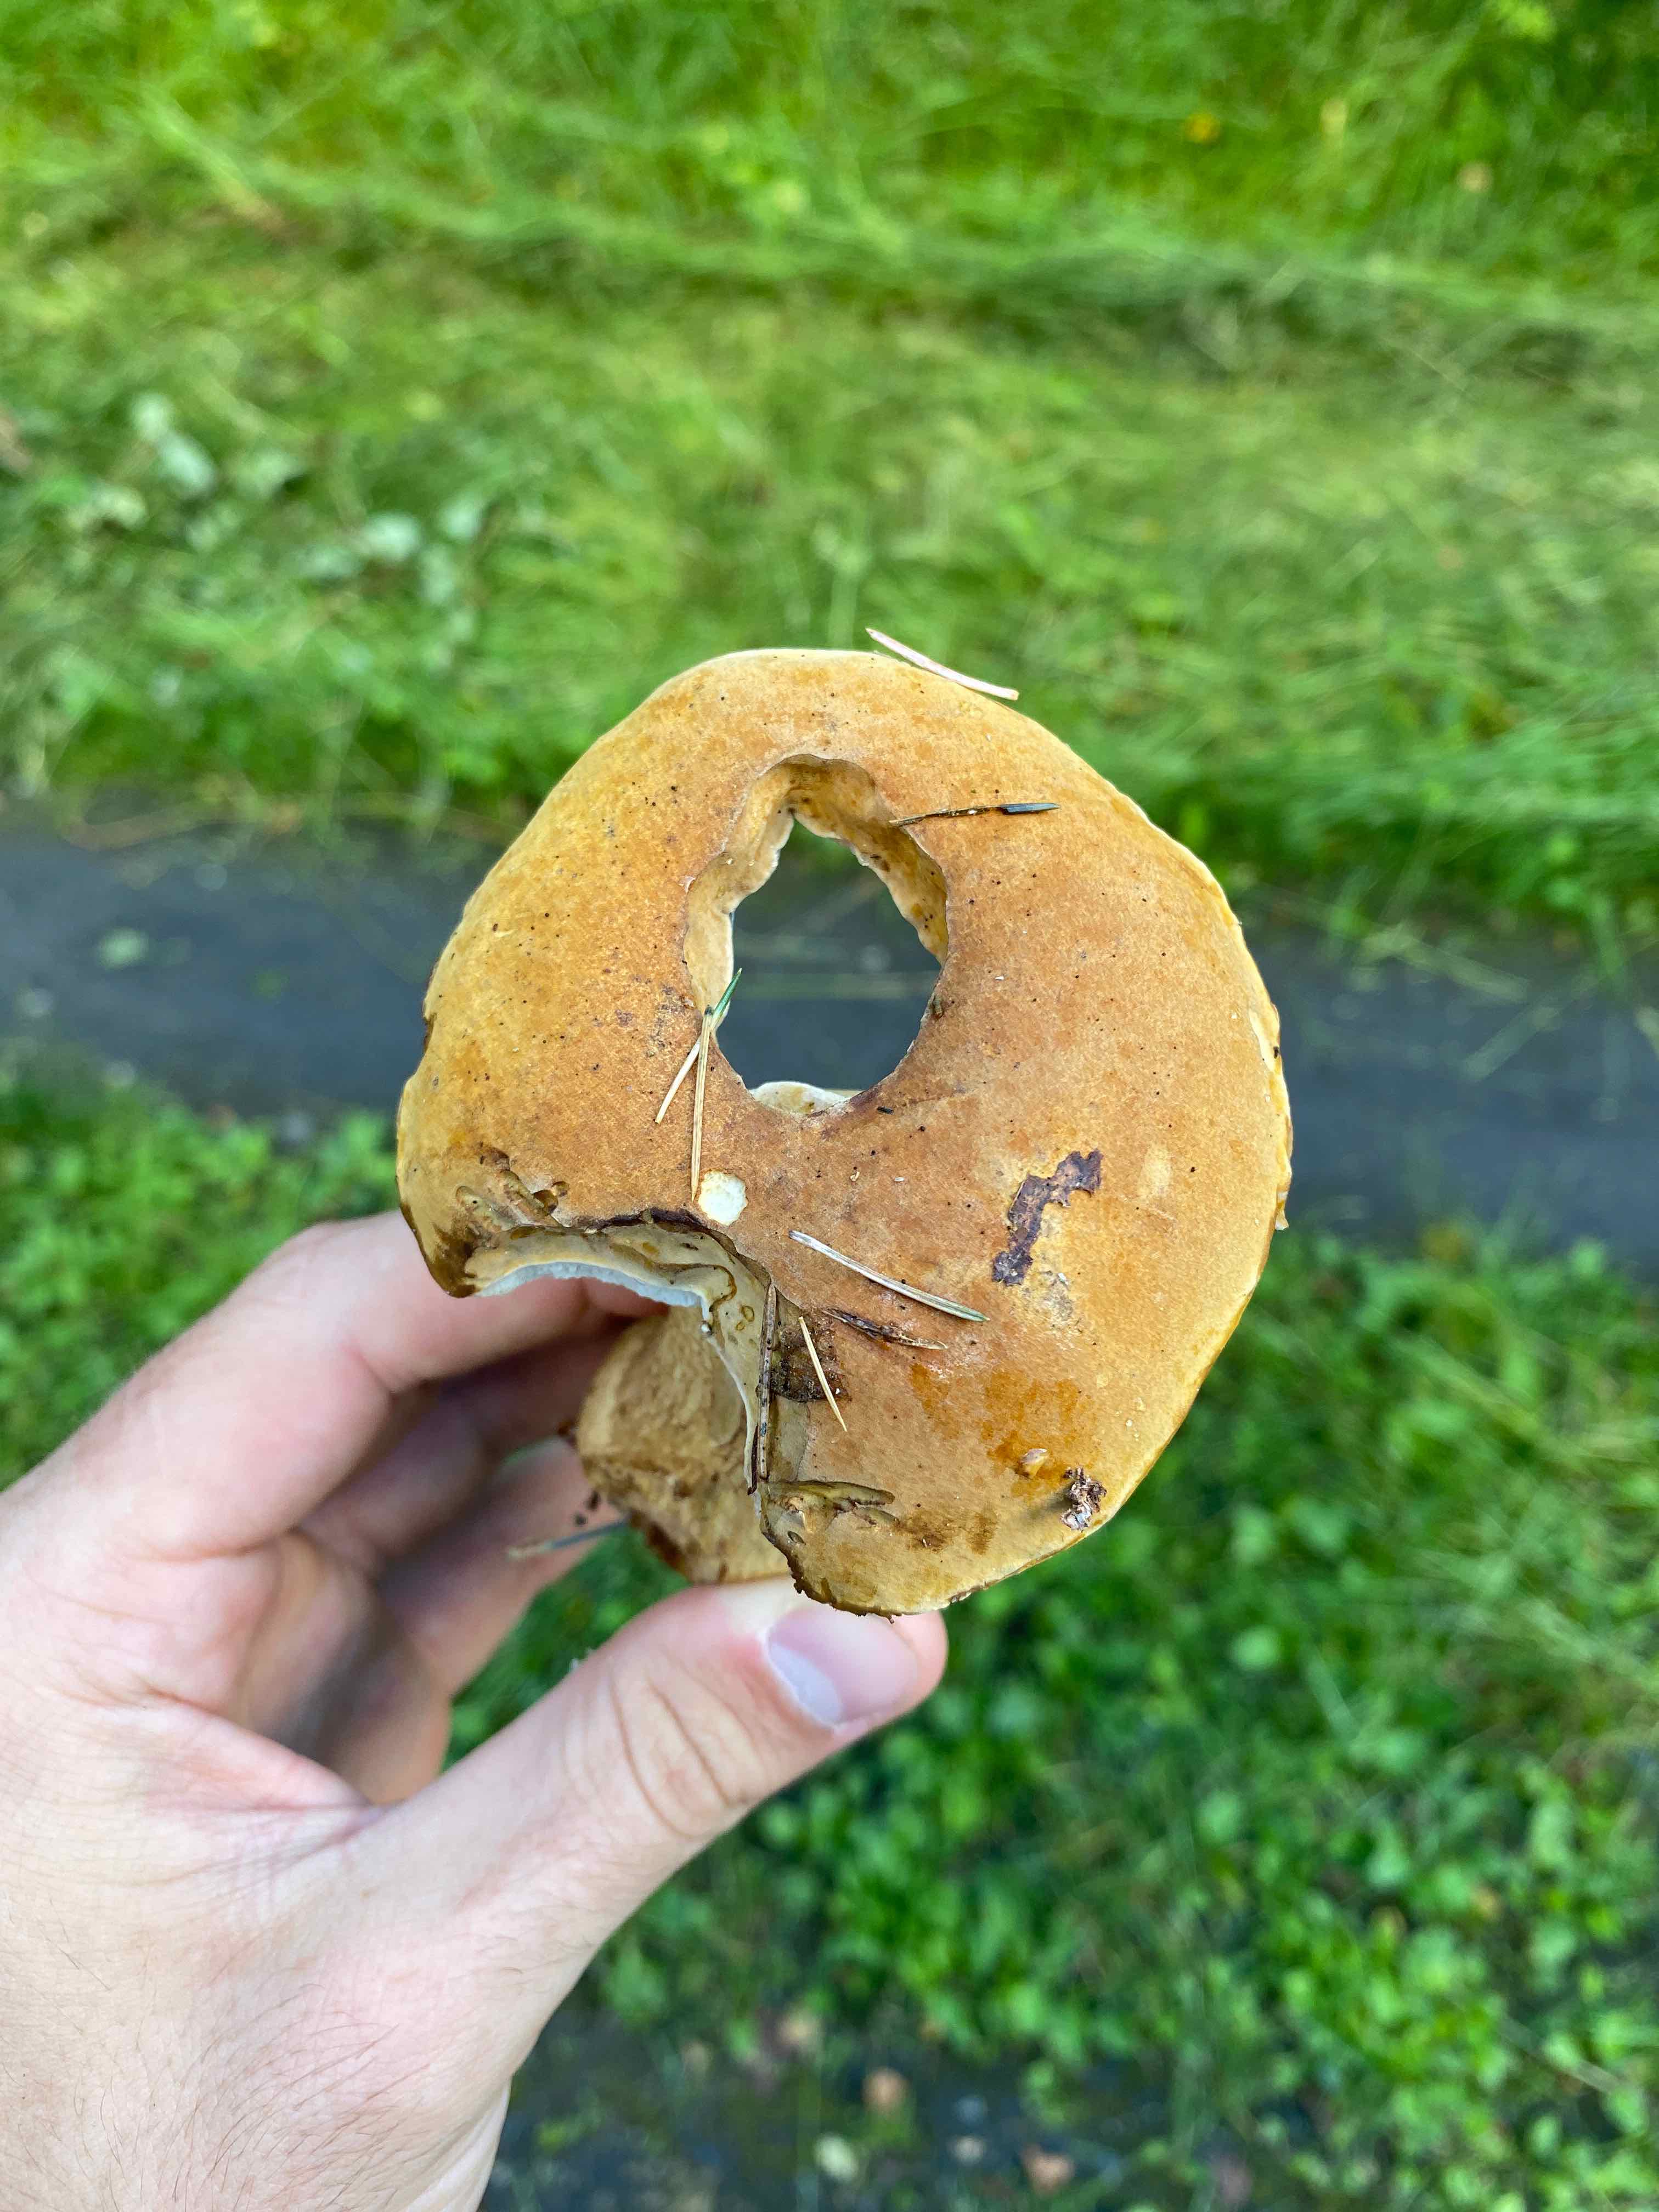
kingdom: Fungi
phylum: Basidiomycota
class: Agaricomycetes
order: Boletales
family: Boletaceae
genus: Tylopilus
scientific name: Tylopilus felleus
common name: galderørhat
